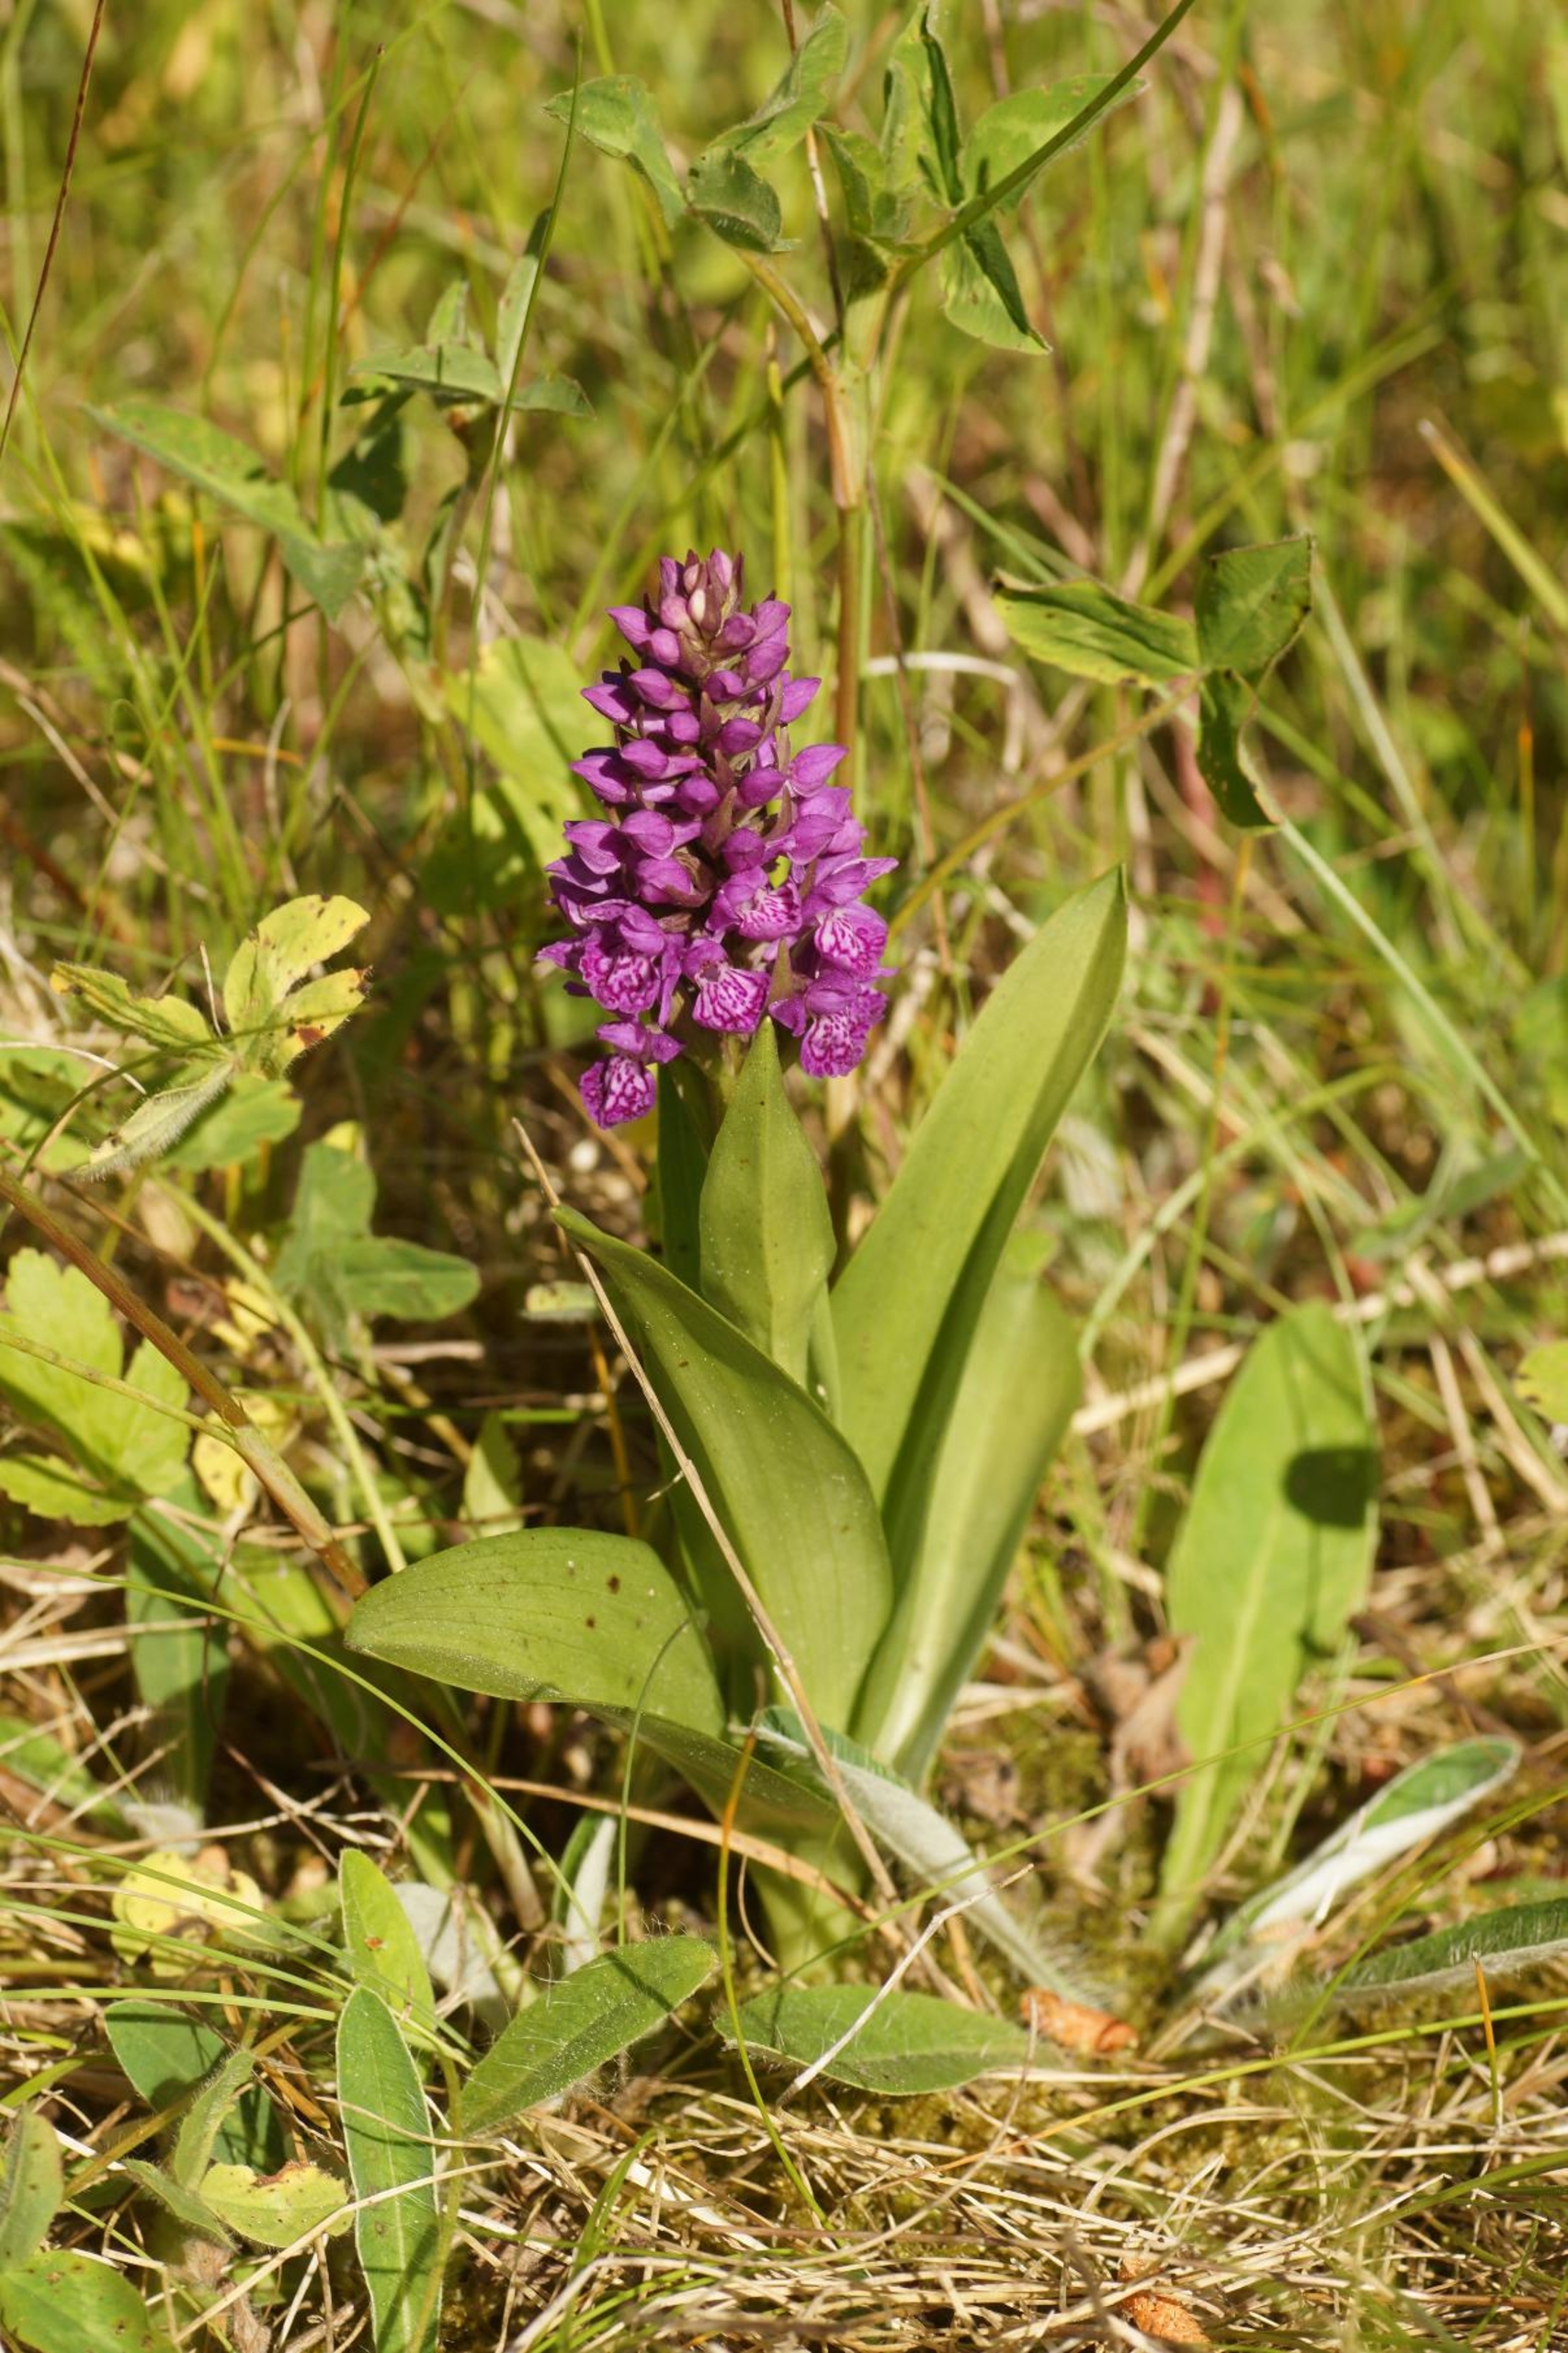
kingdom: Plantae
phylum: Tracheophyta
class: Liliopsida
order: Asparagales
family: Orchidaceae
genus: Dactylorhiza
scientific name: Dactylorhiza majalis
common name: Purpur-gøgeurt
